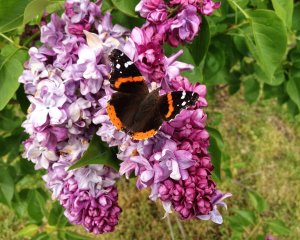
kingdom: Animalia
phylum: Arthropoda
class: Insecta
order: Lepidoptera
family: Nymphalidae
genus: Vanessa
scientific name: Vanessa atalanta
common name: Red Admiral
